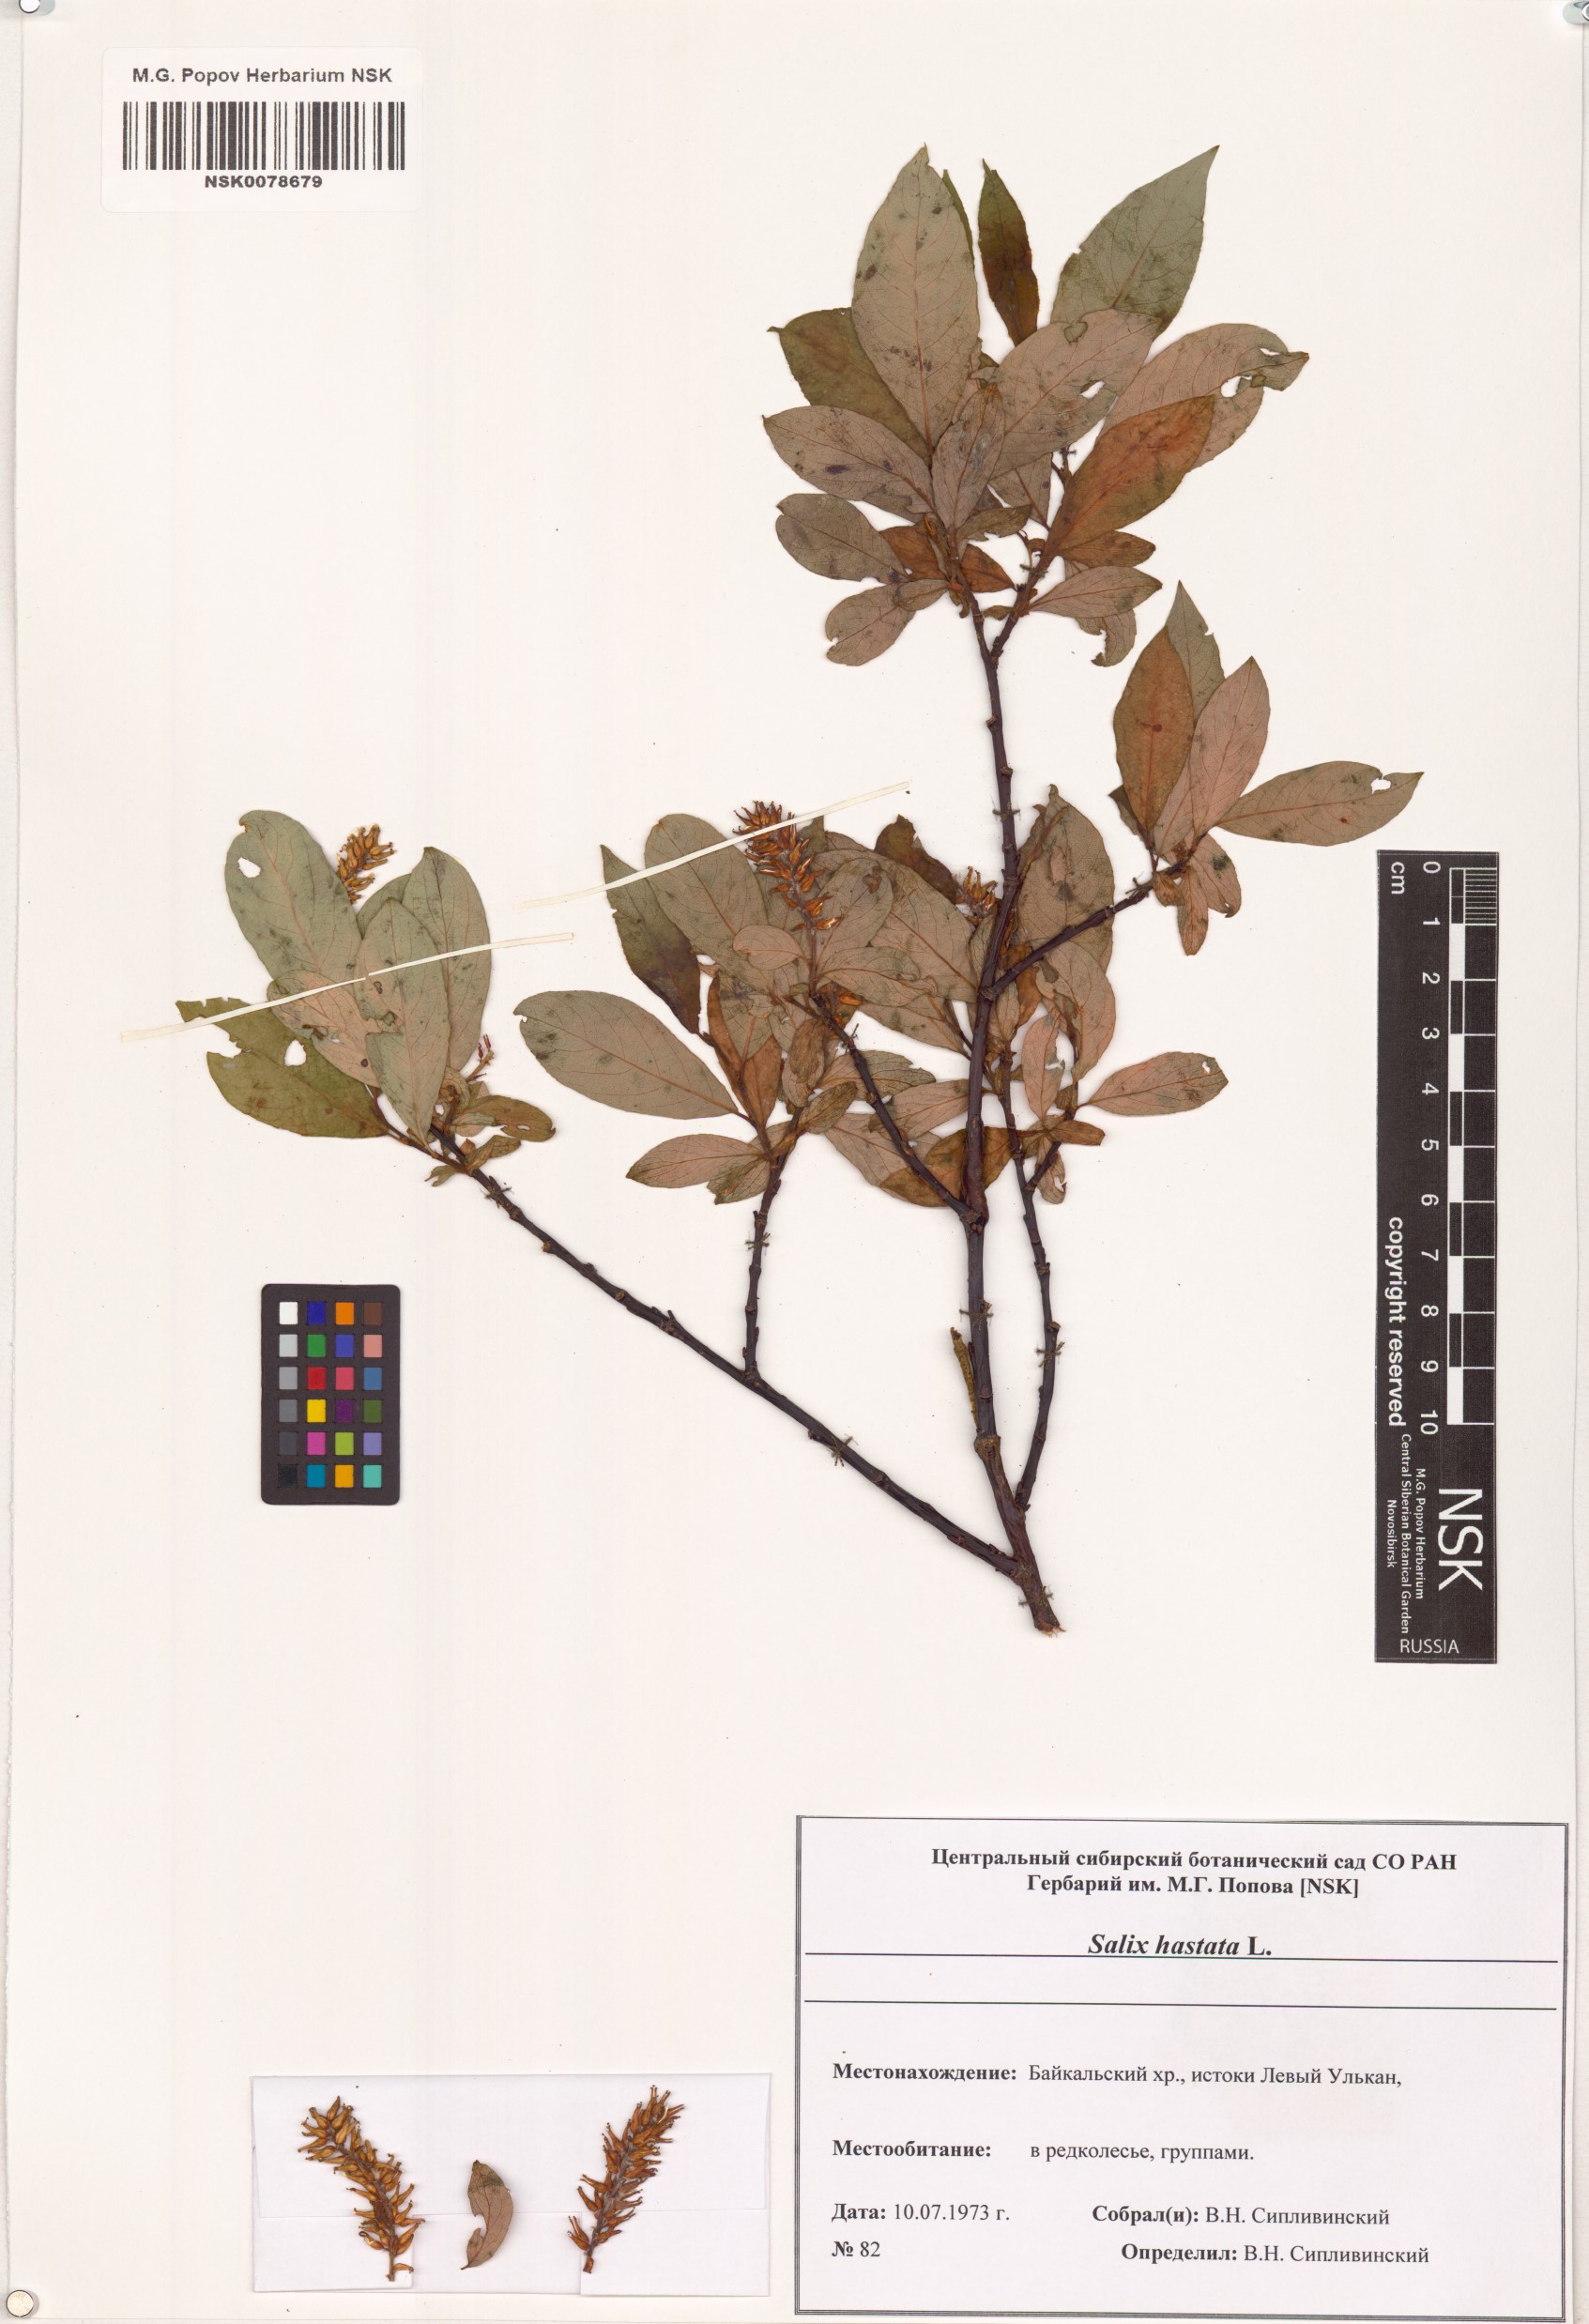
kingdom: Plantae
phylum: Tracheophyta
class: Magnoliopsida
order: Malpighiales
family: Salicaceae
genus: Salix
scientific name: Salix hastata
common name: Halberd willow
